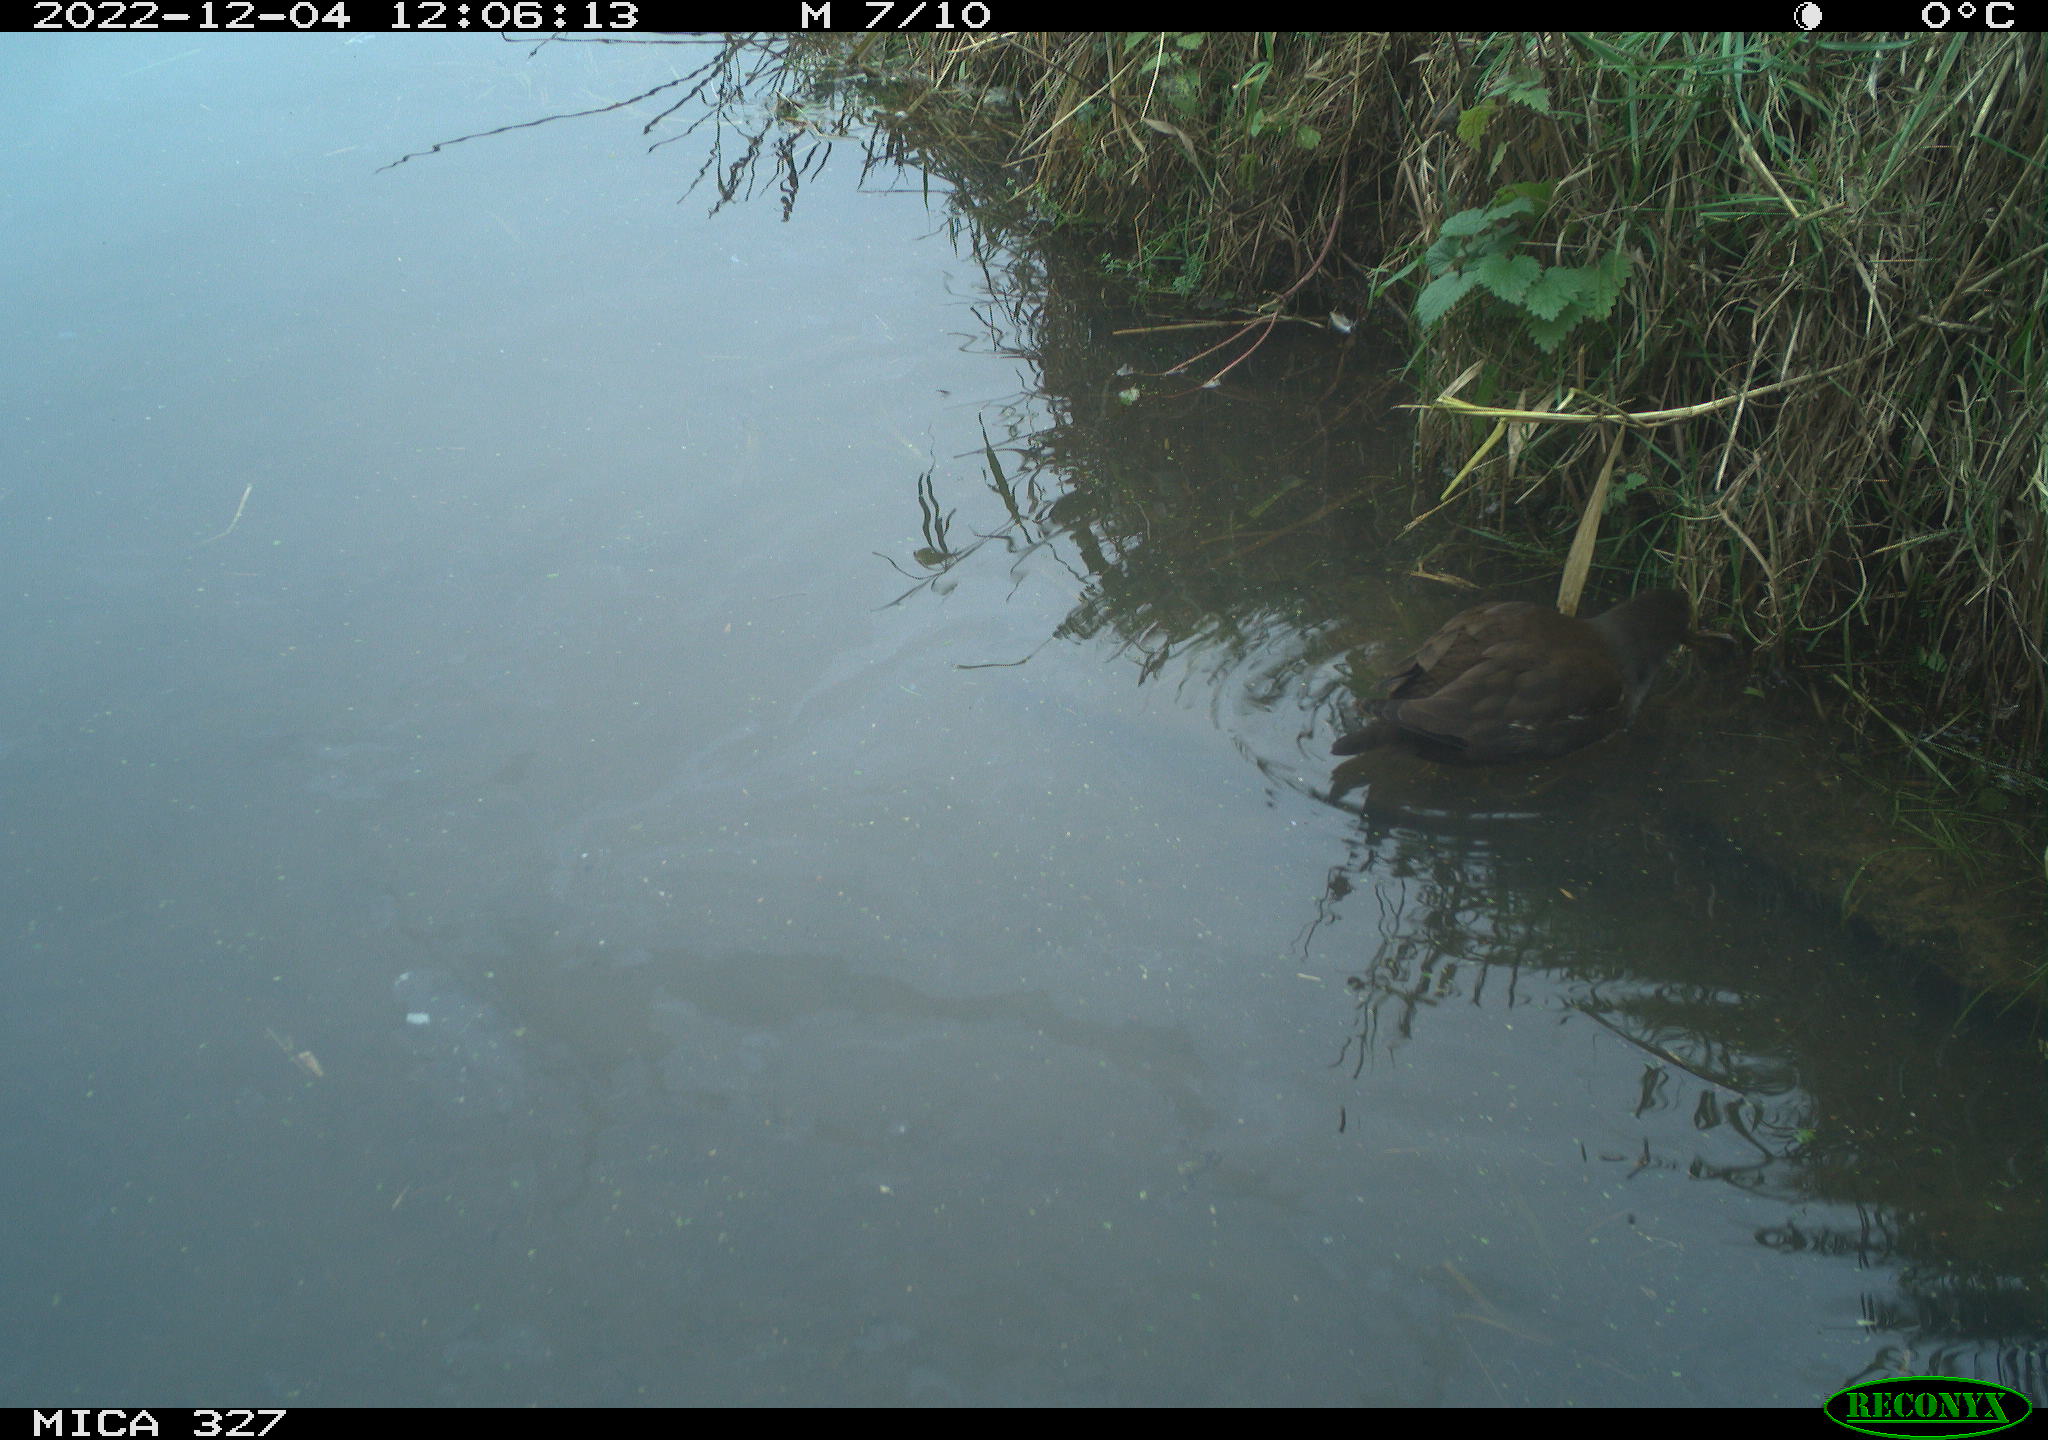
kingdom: Animalia
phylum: Chordata
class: Aves
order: Gruiformes
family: Rallidae
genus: Gallinula
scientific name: Gallinula chloropus
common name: Common moorhen
